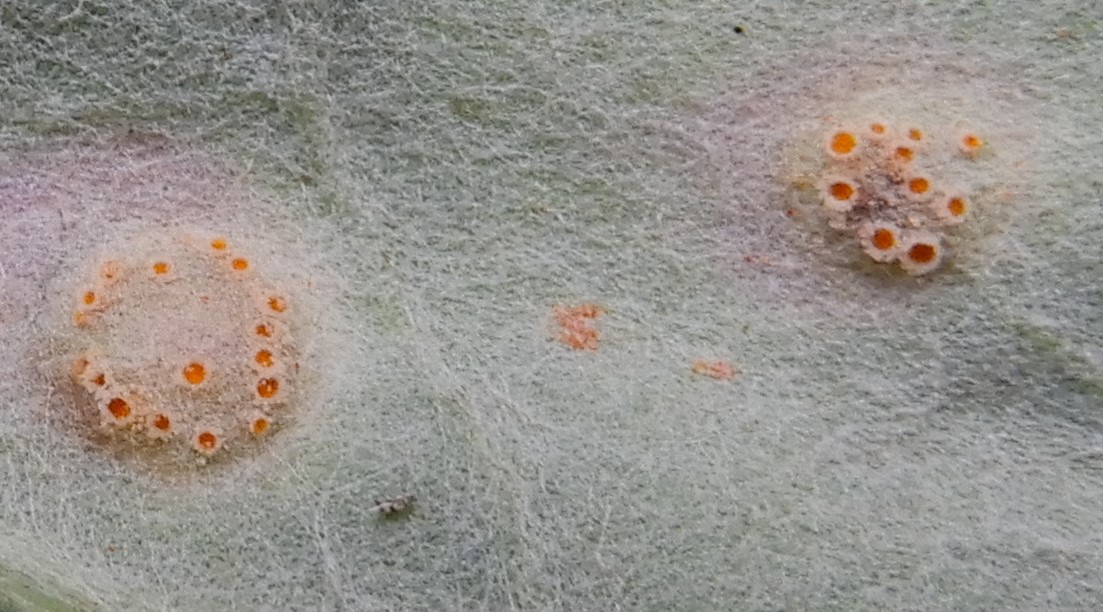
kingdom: Fungi
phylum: Basidiomycota
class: Pucciniomycetes
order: Pucciniales
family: Pucciniaceae
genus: Puccinia
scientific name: Puccinia poarum
